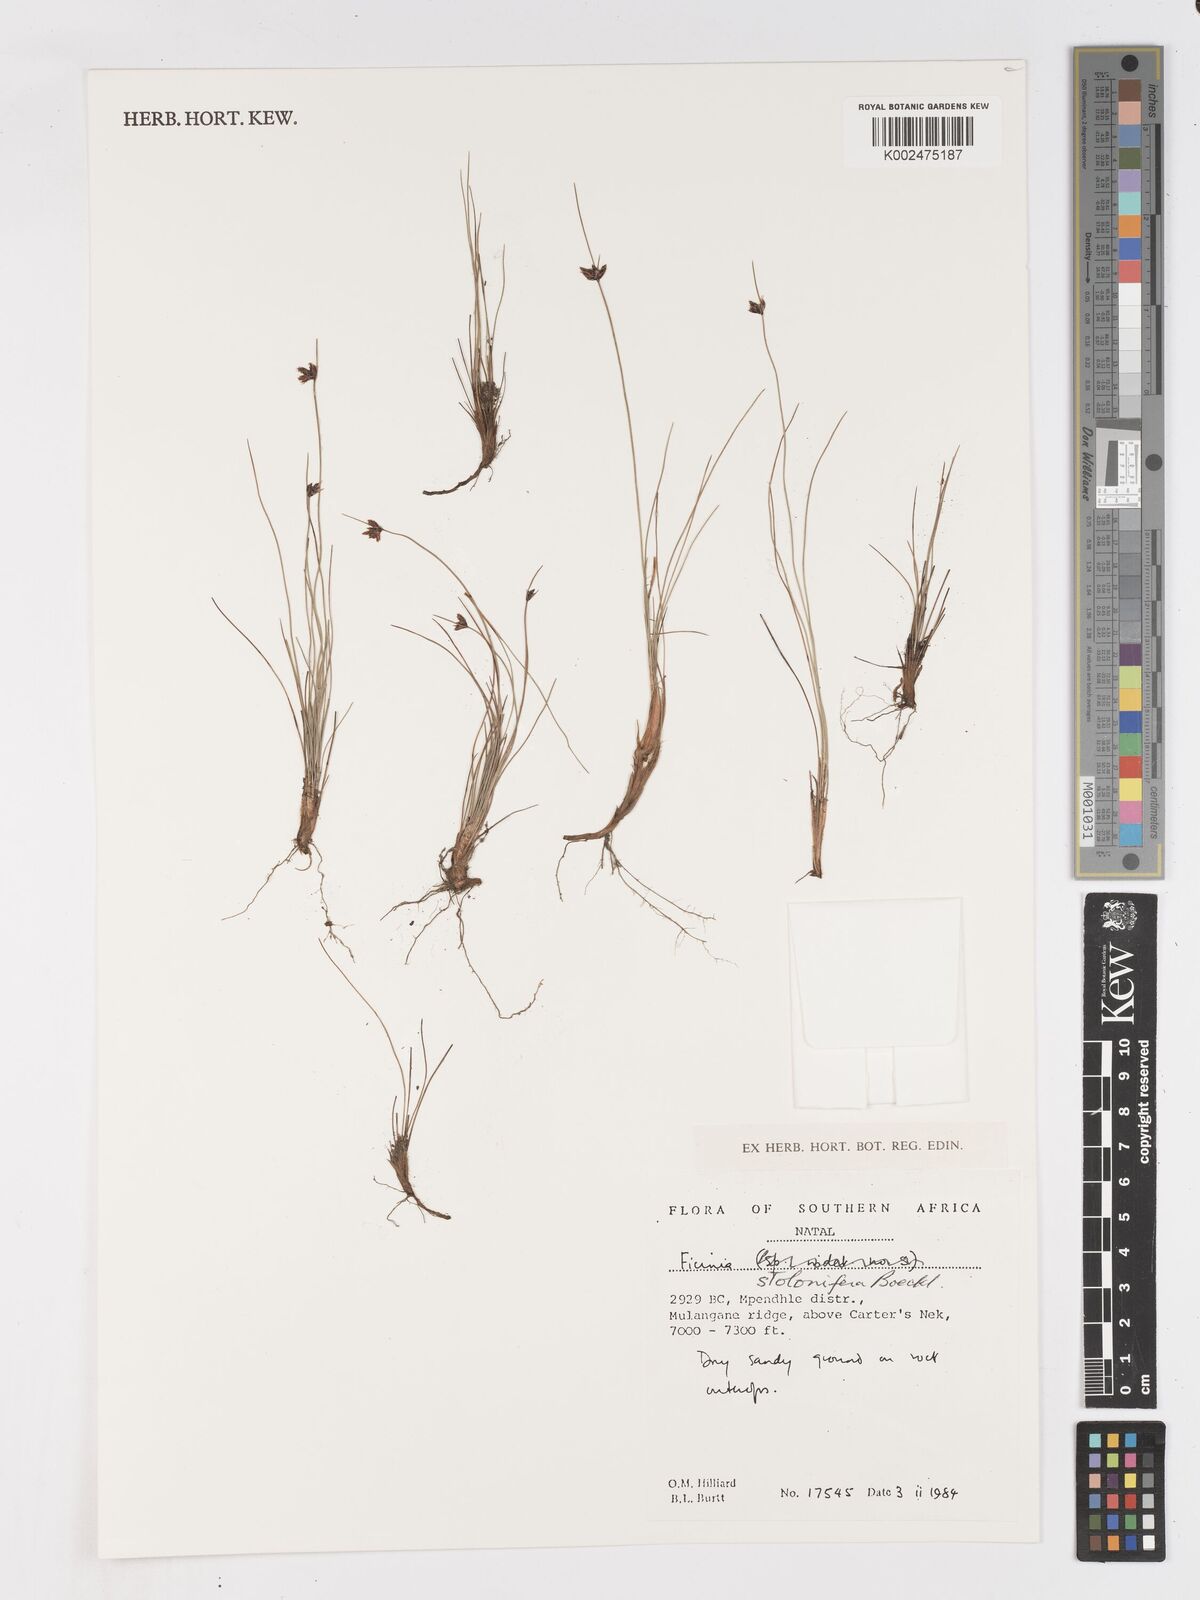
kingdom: Plantae
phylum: Tracheophyta
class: Liliopsida
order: Poales
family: Cyperaceae
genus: Ficinia
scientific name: Ficinia stolonifera
